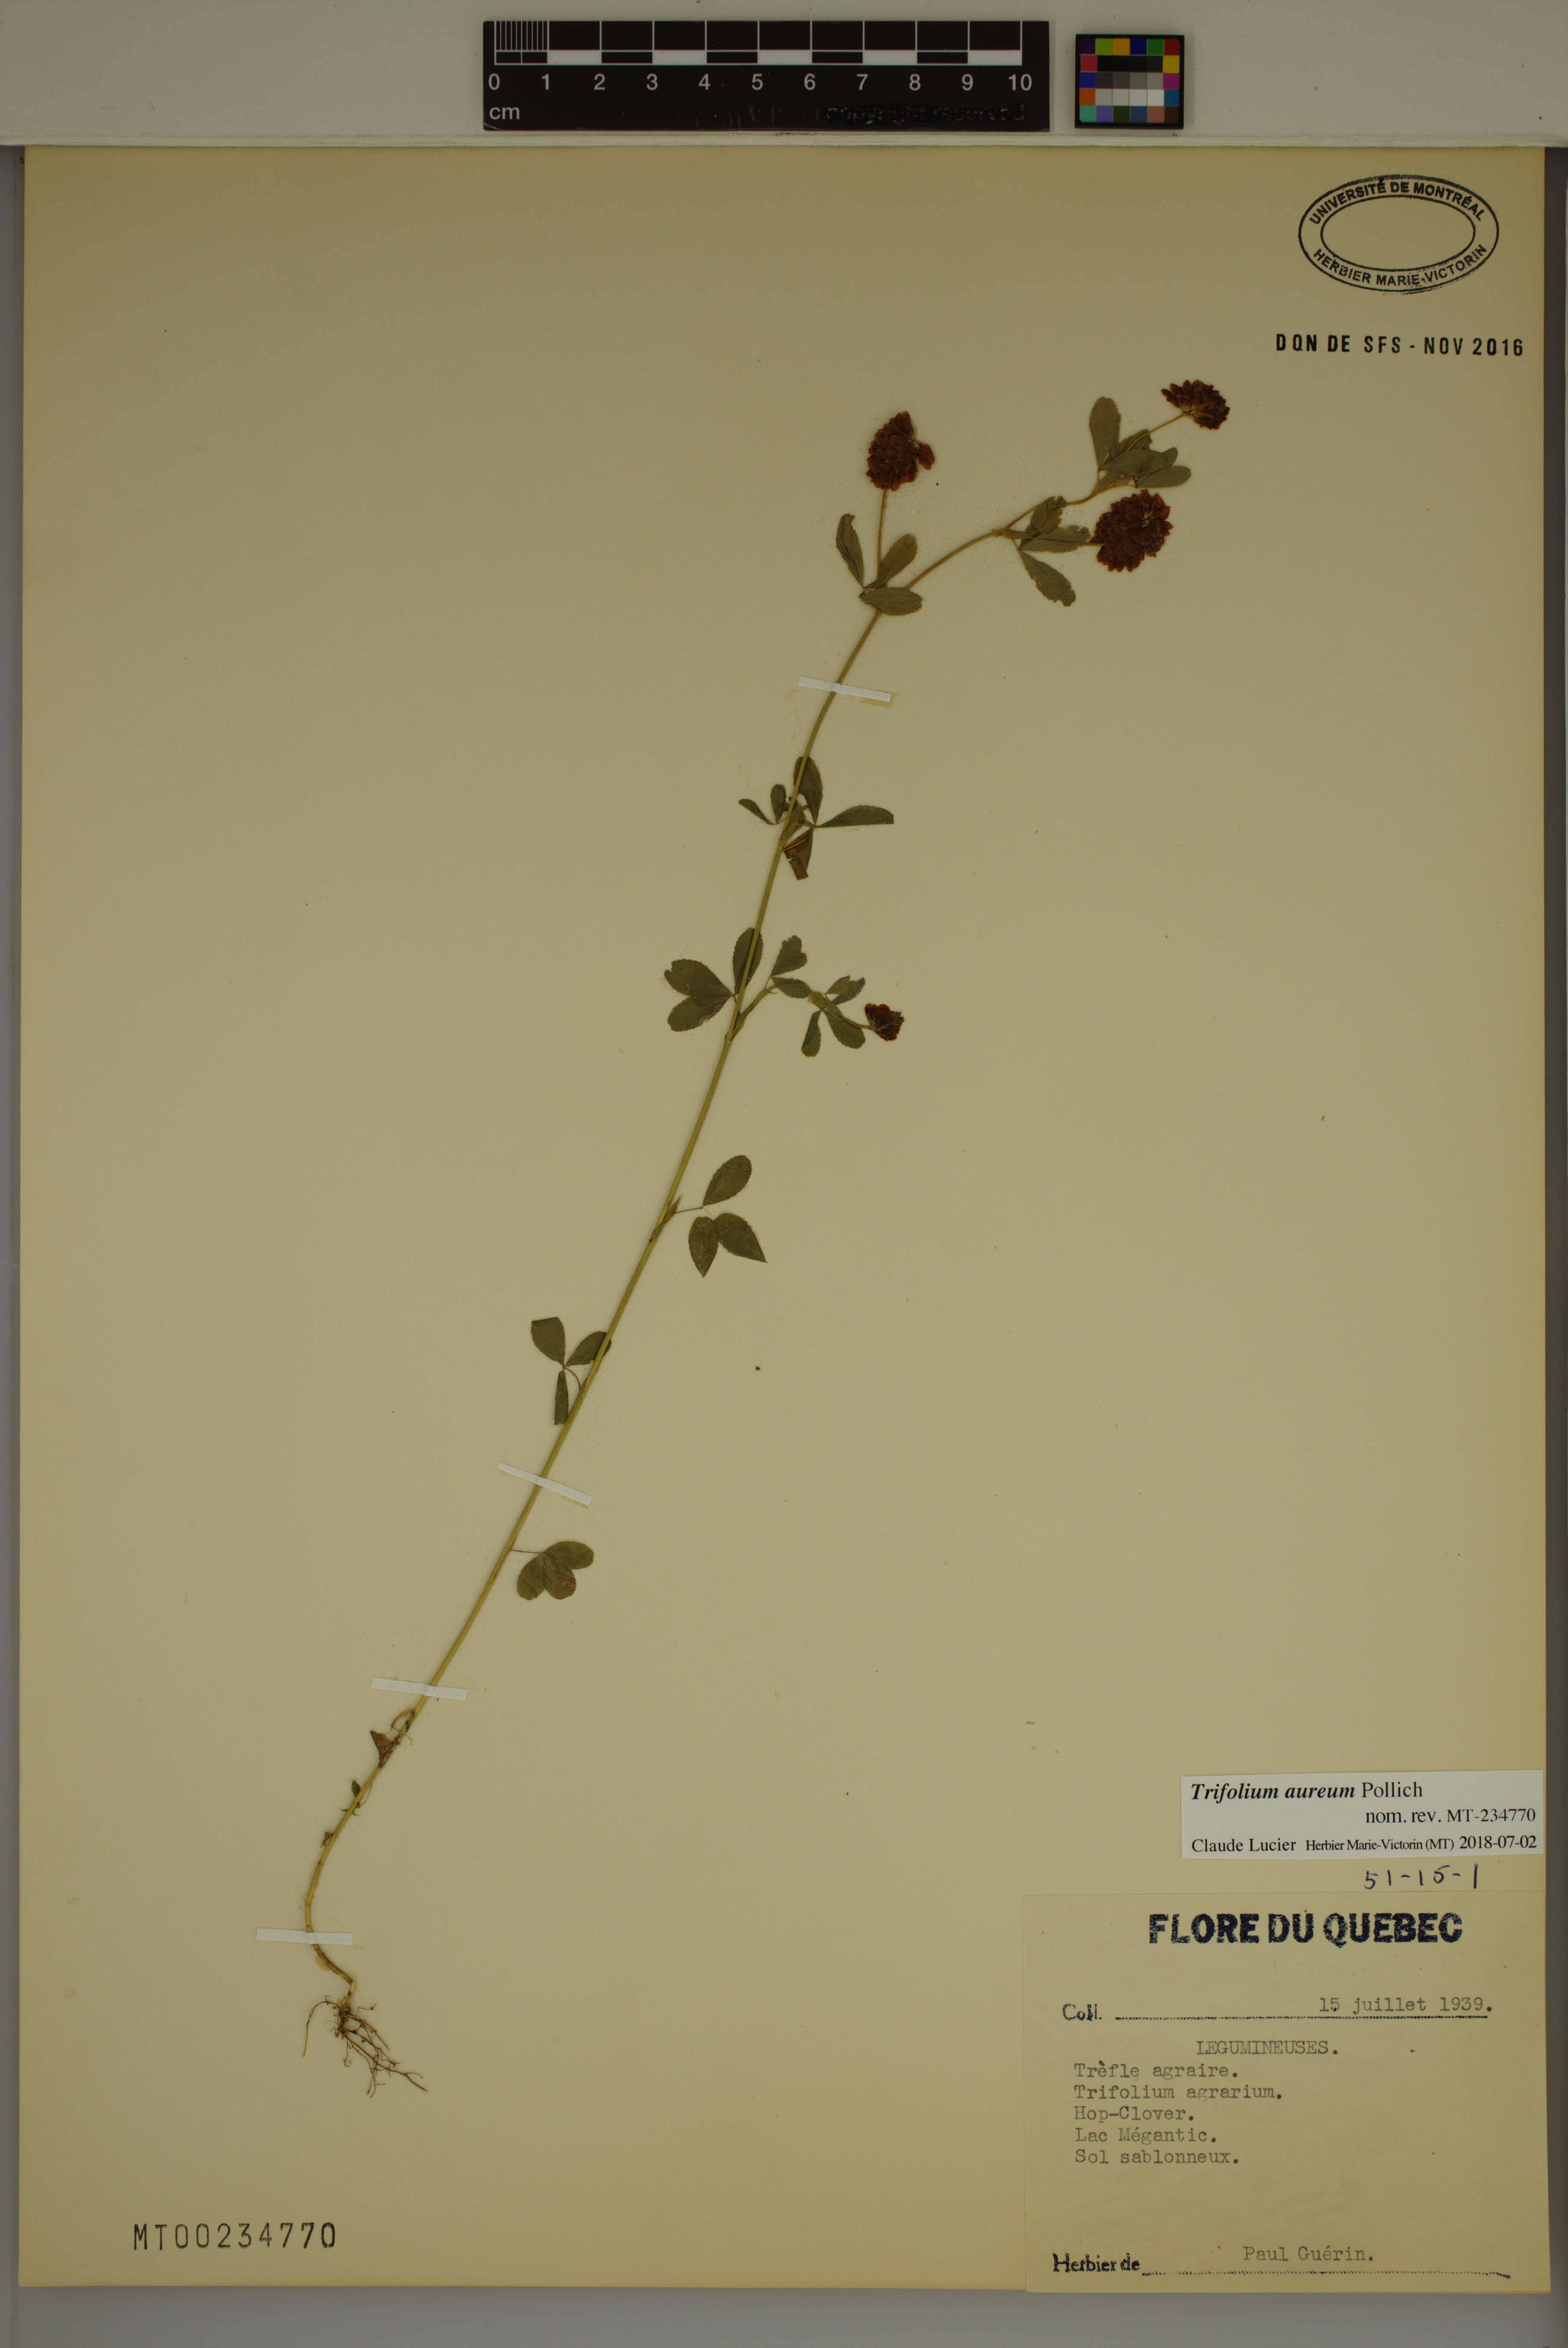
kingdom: Plantae
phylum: Tracheophyta
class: Magnoliopsida
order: Fabales
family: Fabaceae
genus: Trifolium
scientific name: Trifolium aureum
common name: Golden clover
